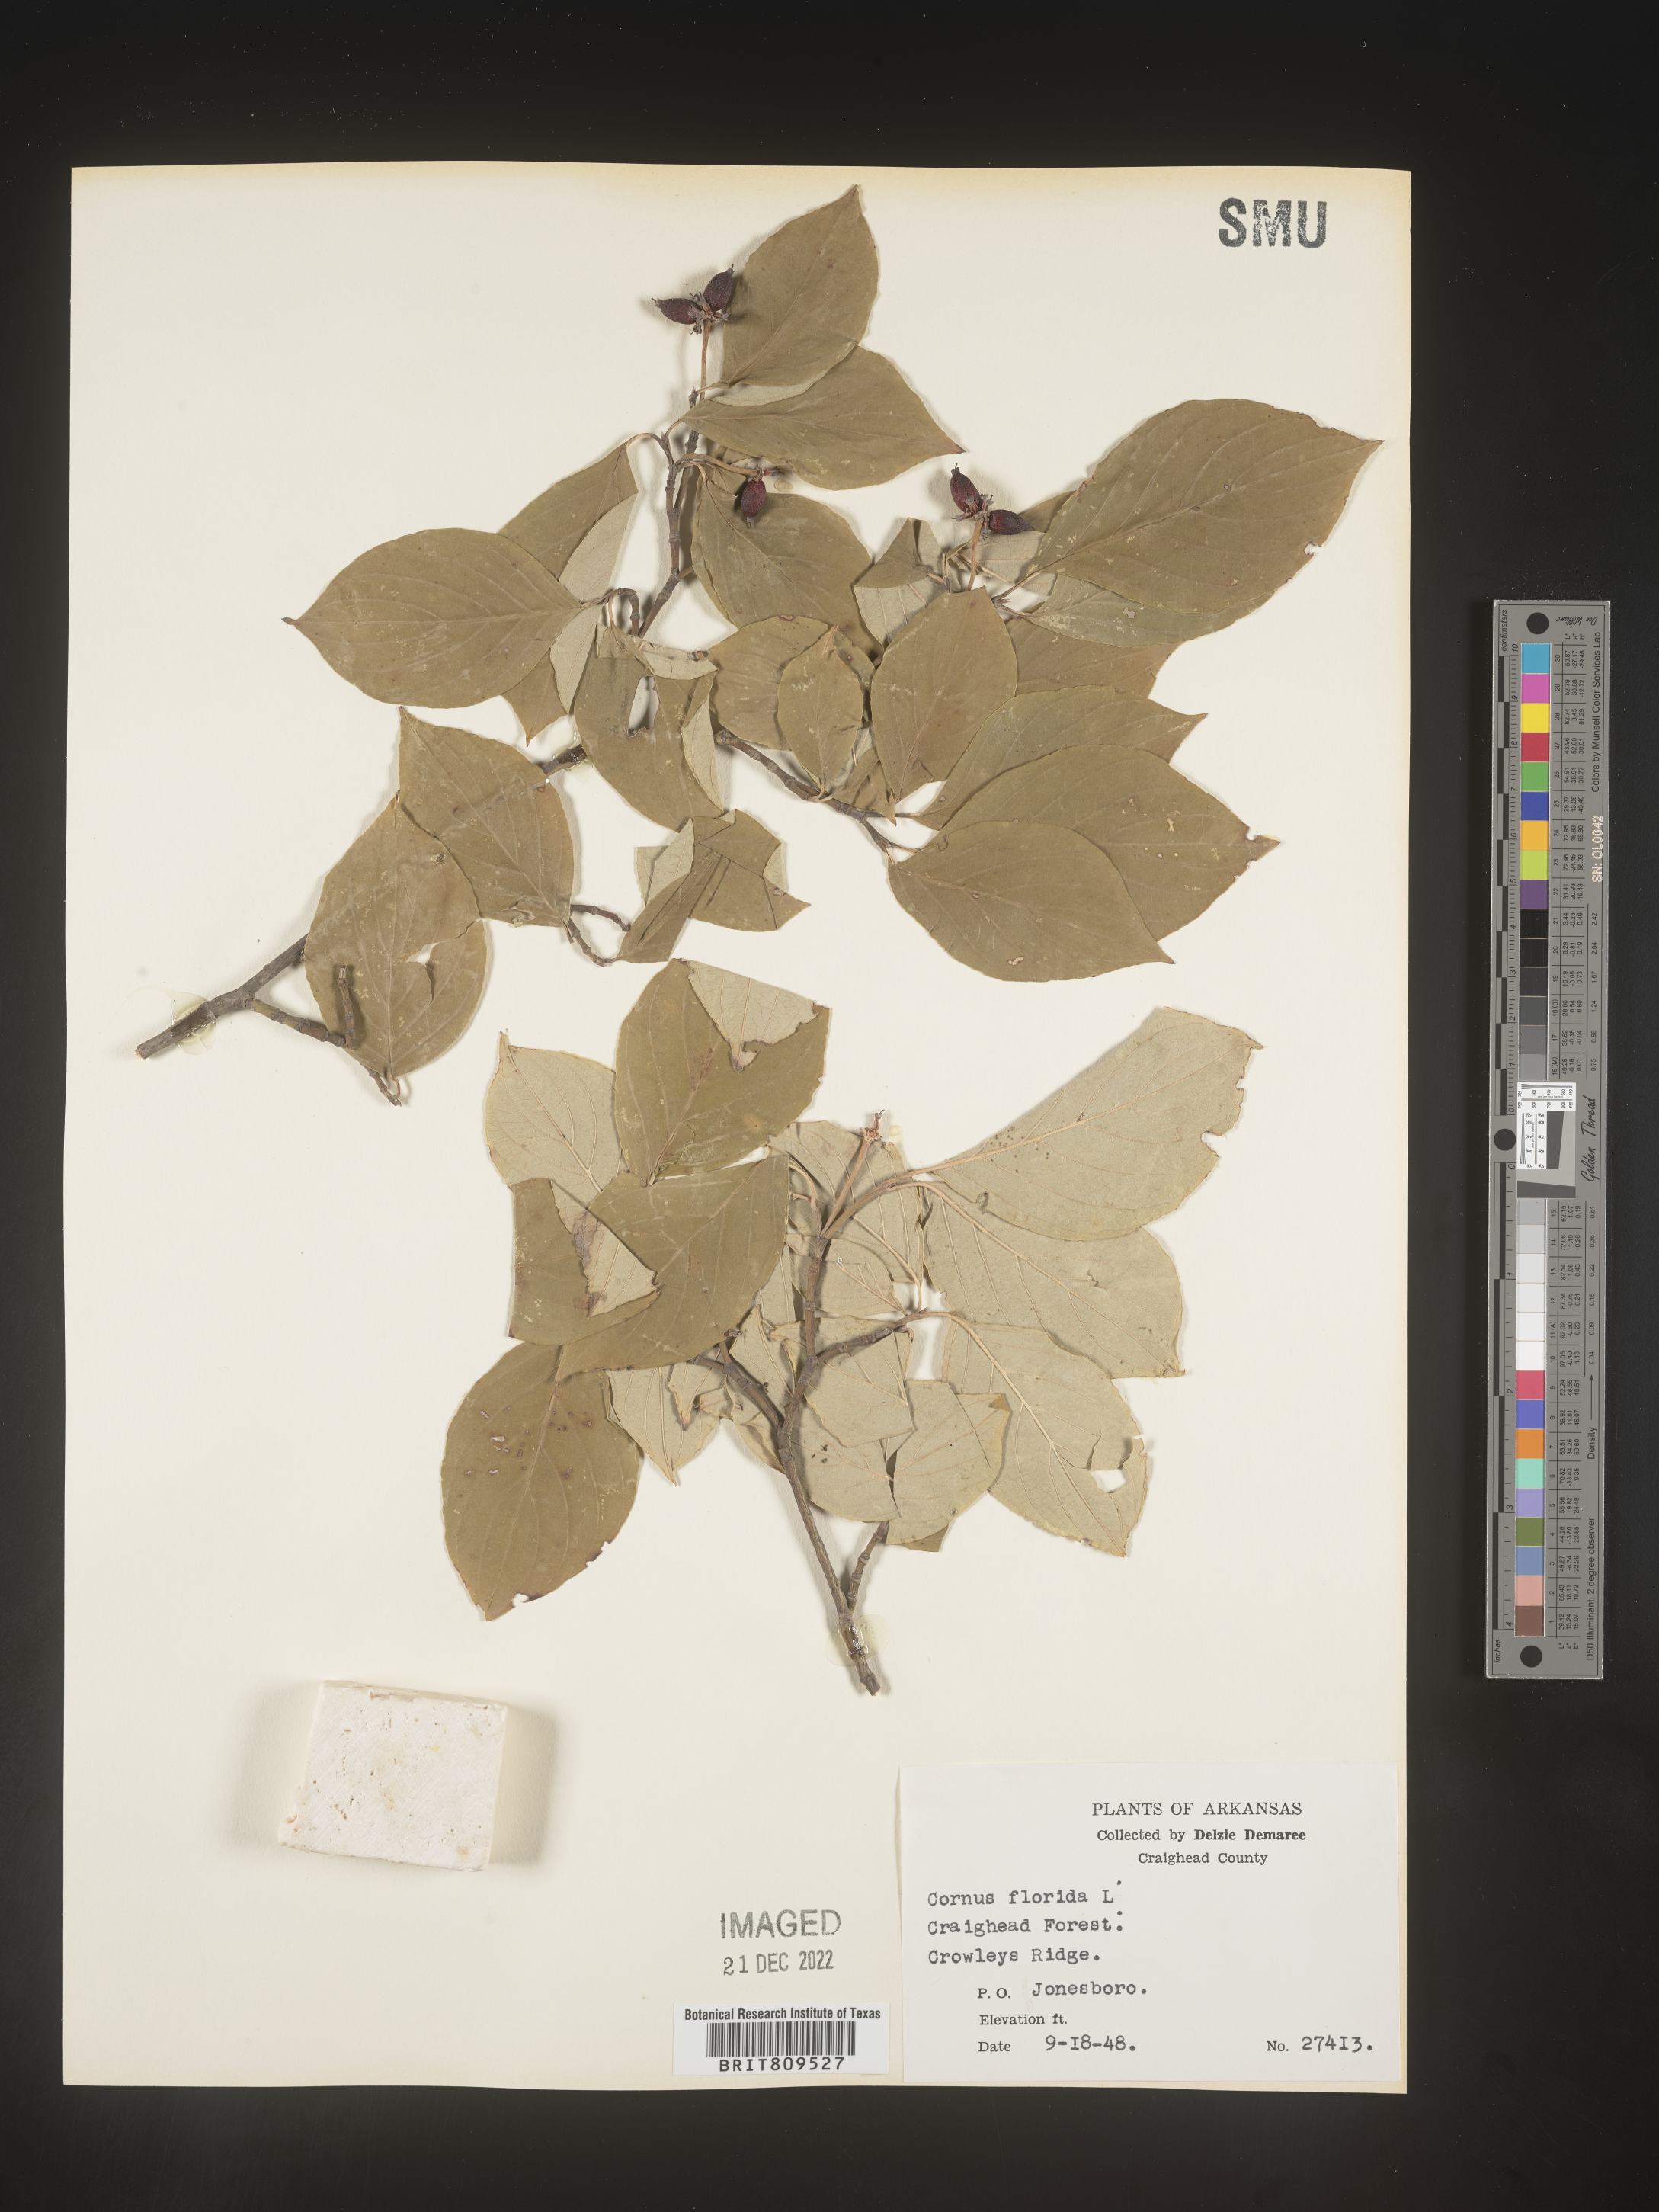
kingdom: Plantae
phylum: Tracheophyta
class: Magnoliopsida
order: Cornales
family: Cornaceae
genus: Cornus
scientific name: Cornus florida
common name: Flowering dogwood
